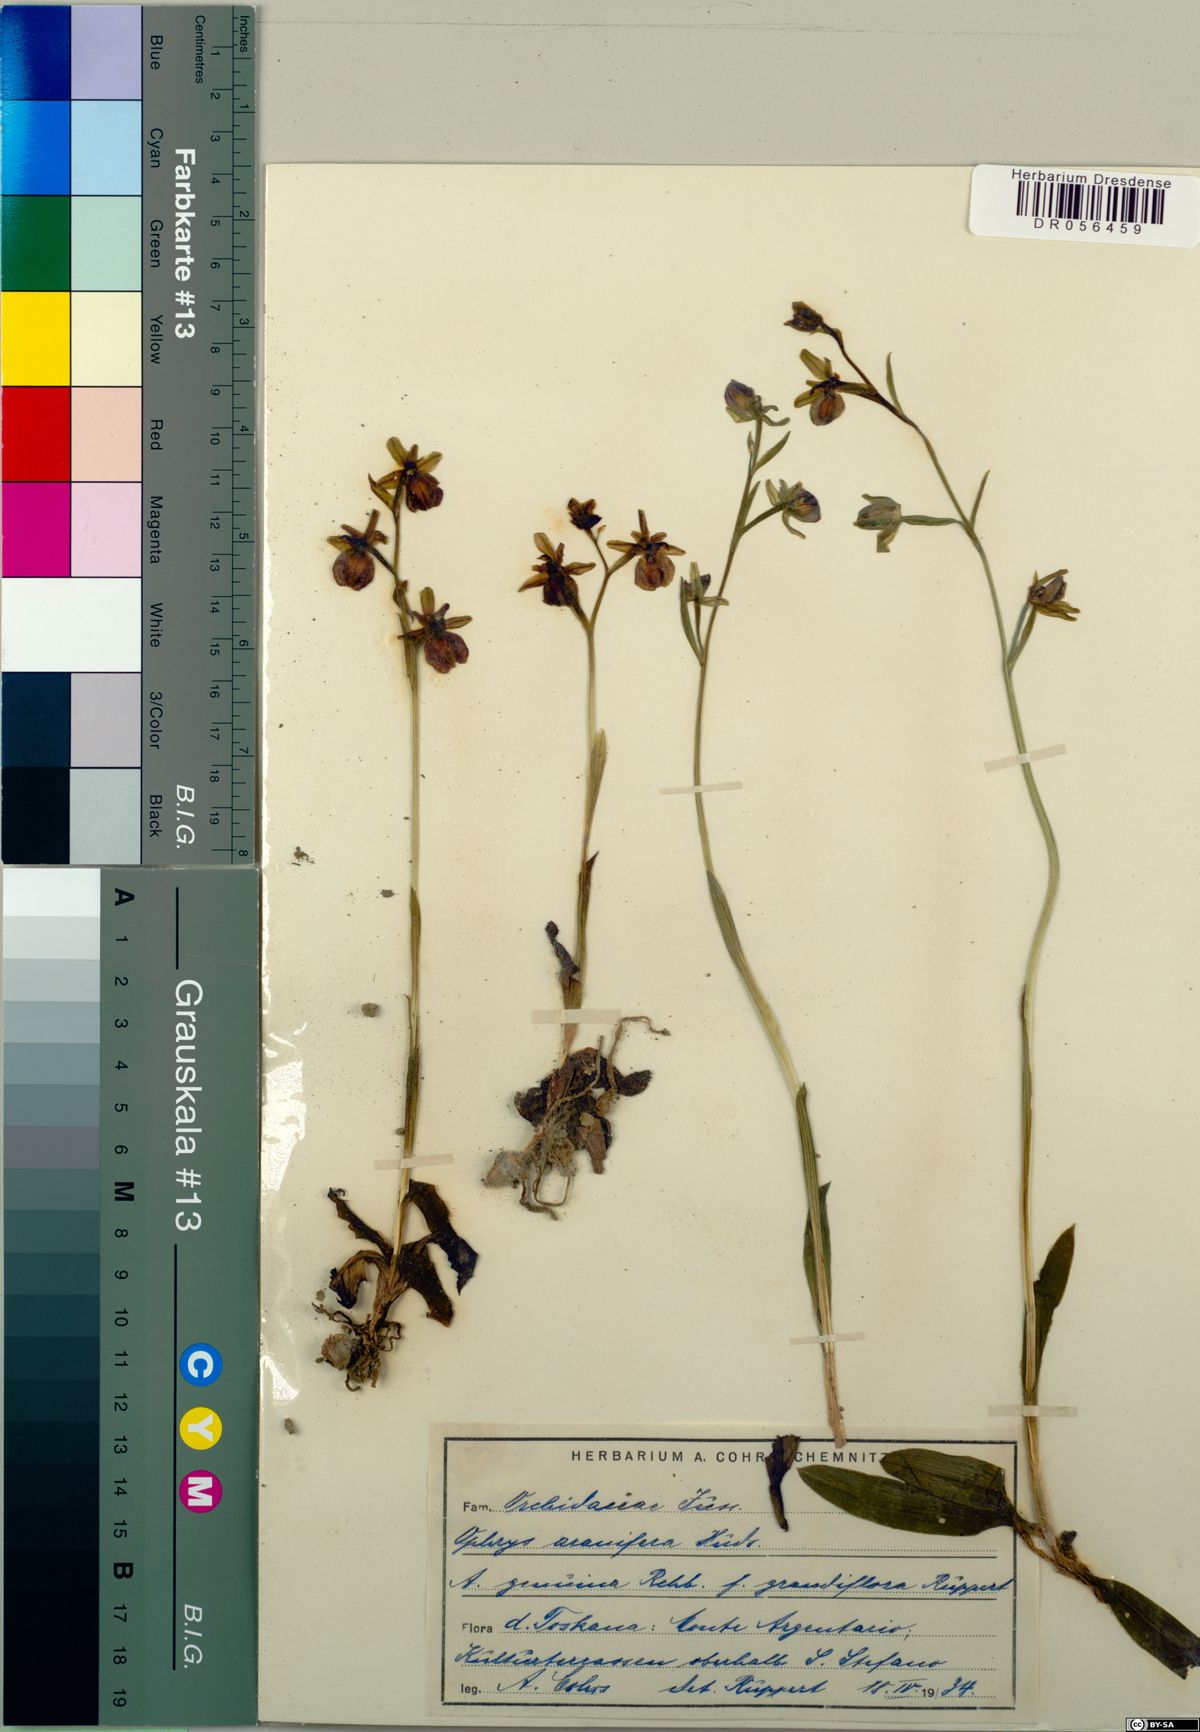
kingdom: Plantae
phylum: Tracheophyta
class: Liliopsida
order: Asparagales
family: Orchidaceae
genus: Ophrys
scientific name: Ophrys sphegodes
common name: Early spider-orchid
